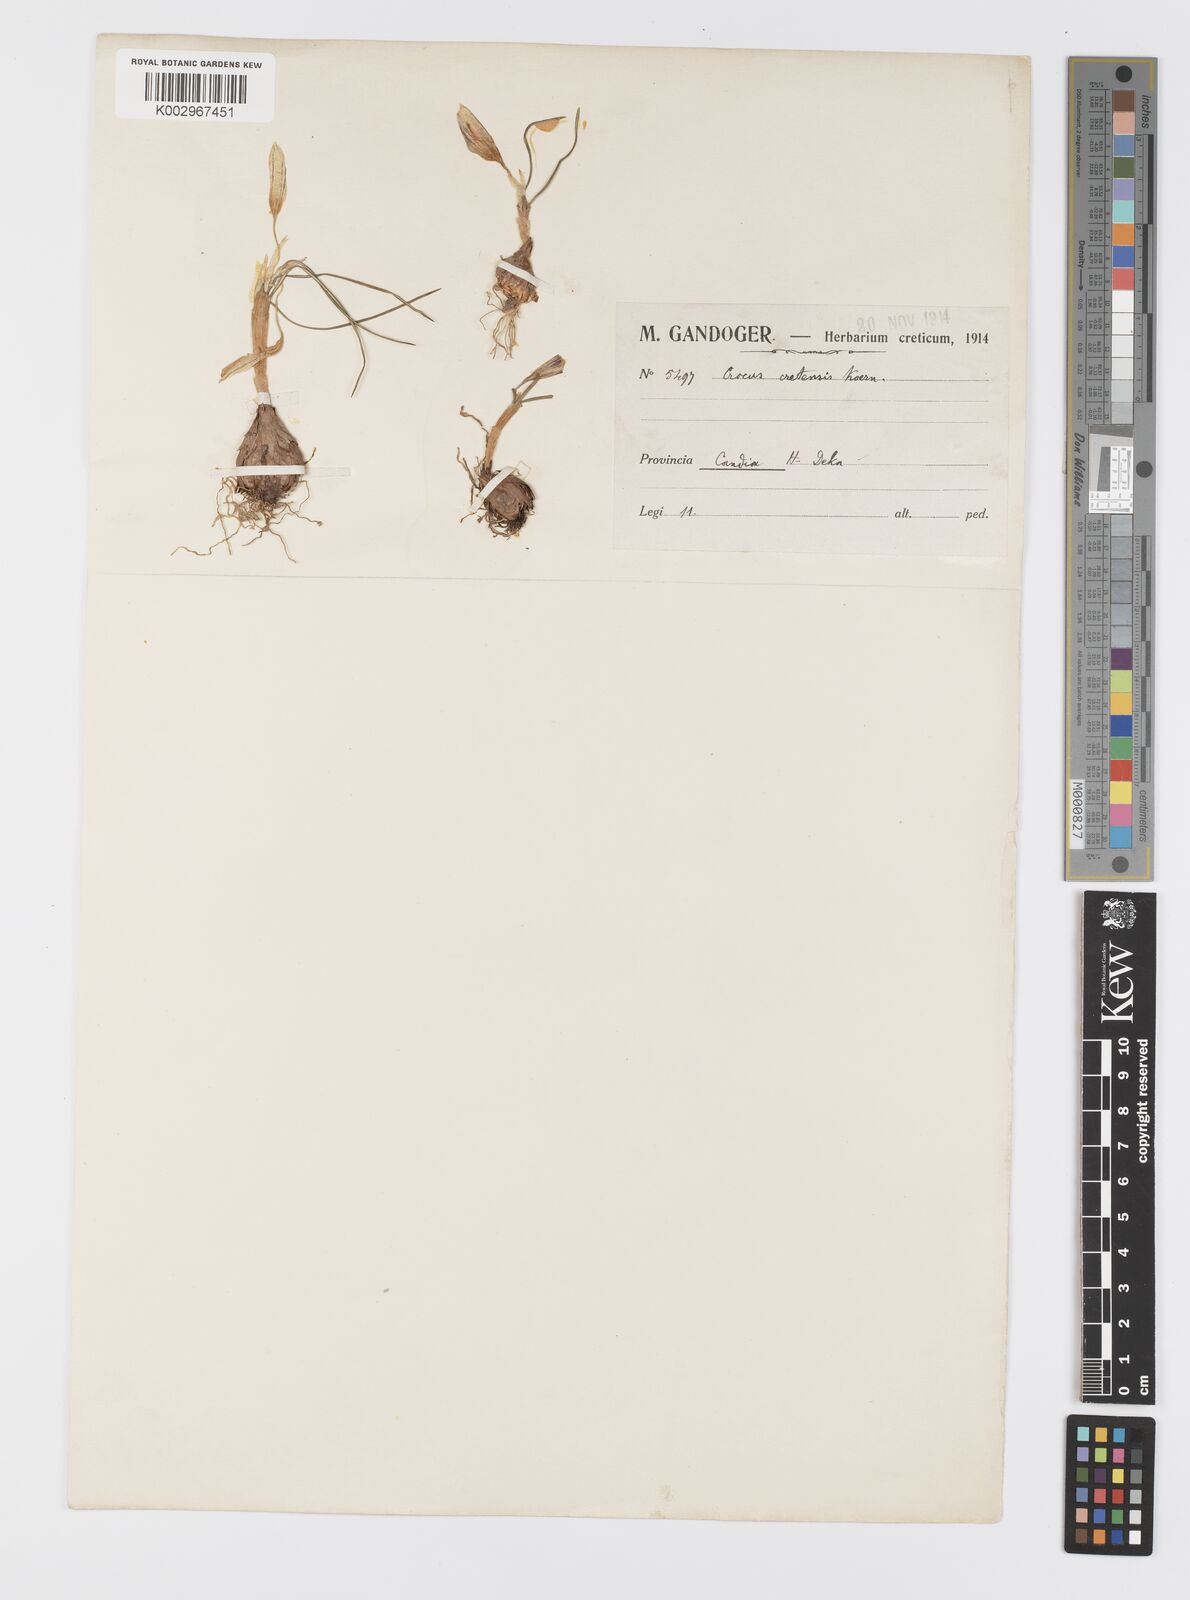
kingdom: Plantae
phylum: Tracheophyta
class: Liliopsida
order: Asparagales
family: Iridaceae
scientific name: Iridaceae
